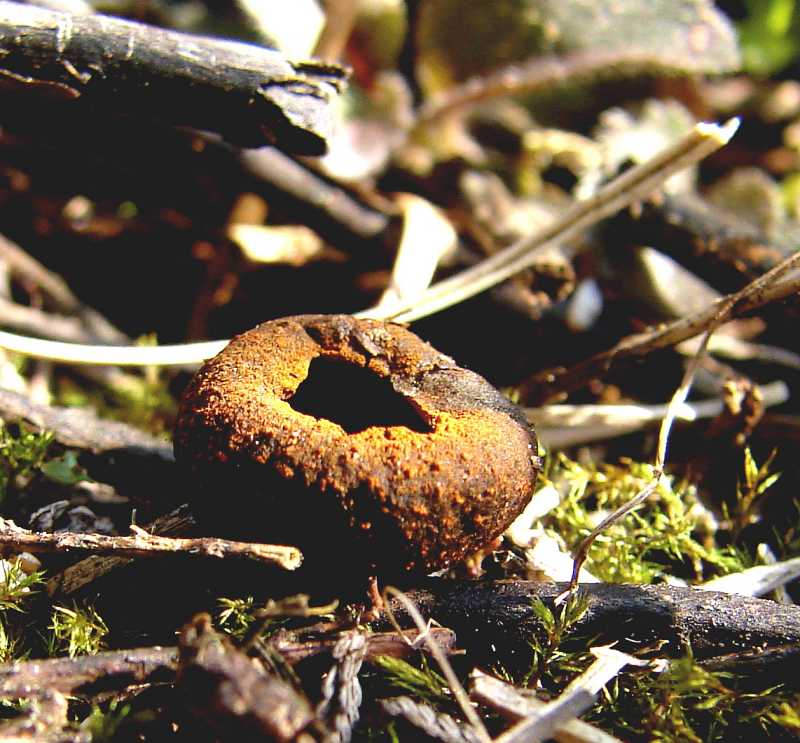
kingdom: Fungi
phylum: Ascomycota
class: Pezizomycetes
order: Pezizales
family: Sarcosomataceae
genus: Plectania
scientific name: Plectania melastoma
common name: rustbæger
